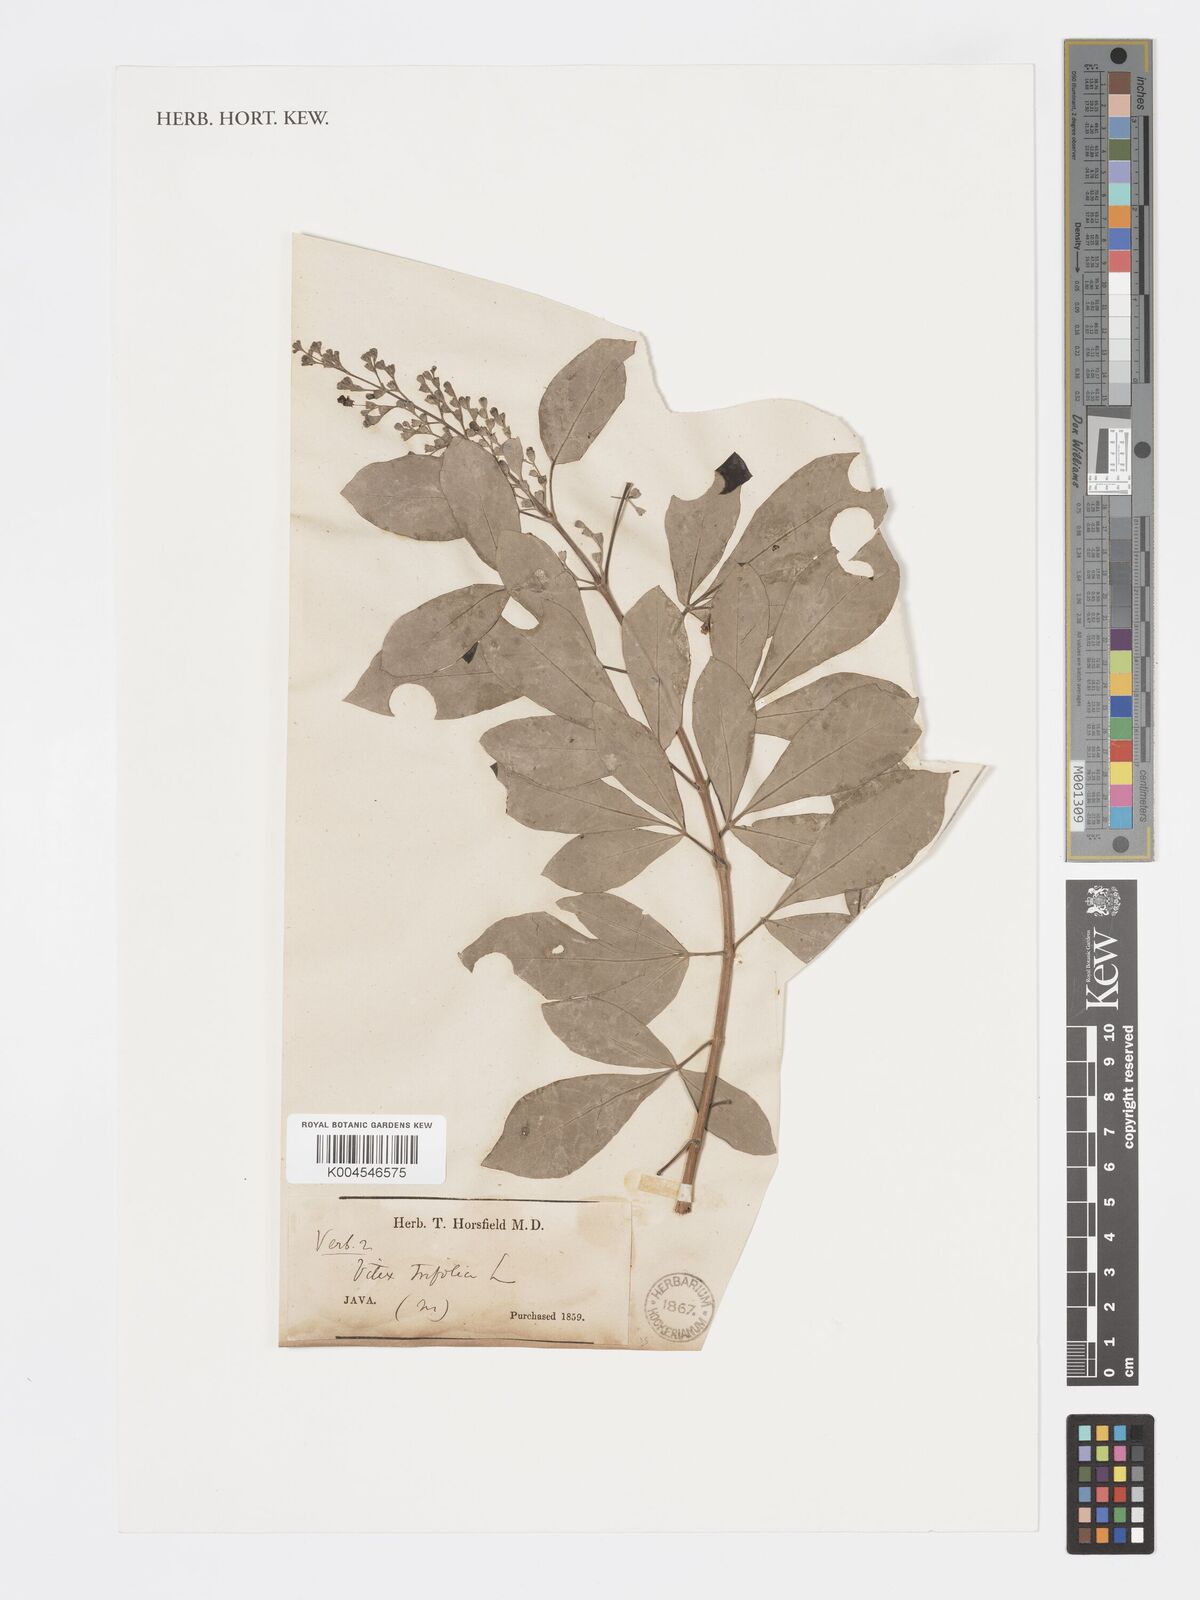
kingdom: Plantae
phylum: Tracheophyta
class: Magnoliopsida
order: Lamiales
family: Lamiaceae
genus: Vitex
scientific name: Vitex trifolia
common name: Simpleleaf chastetree
